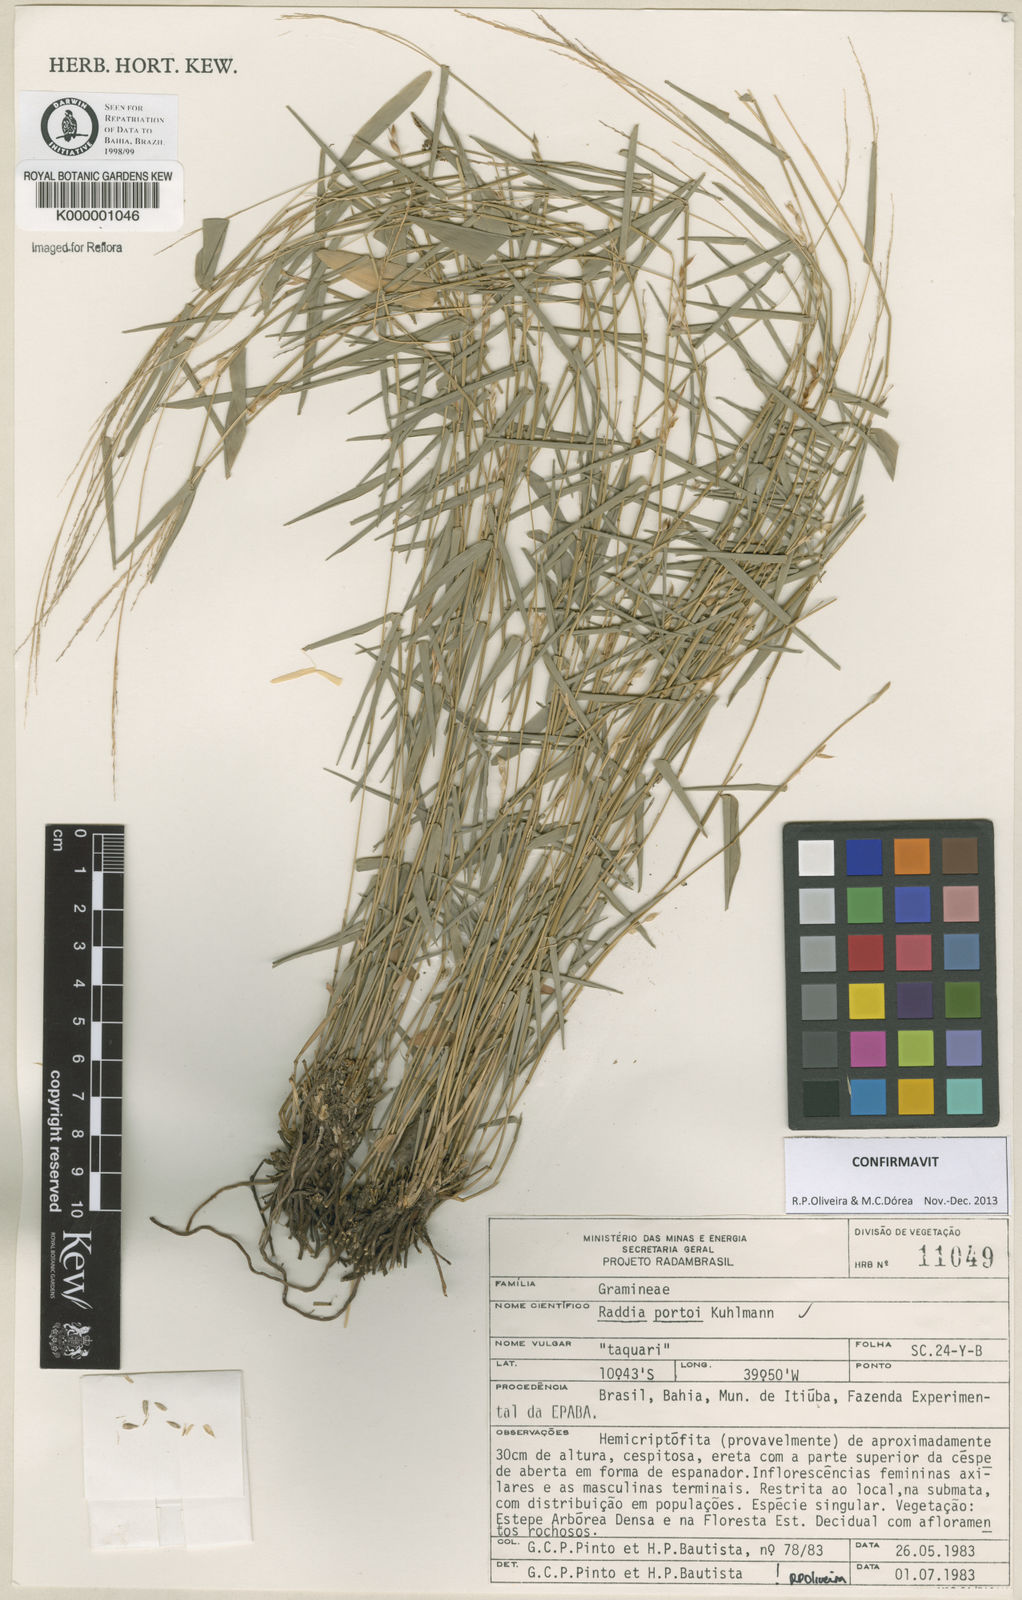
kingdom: Plantae
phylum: Tracheophyta
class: Liliopsida
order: Poales
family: Poaceae
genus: Raddia
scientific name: Raddia portoi
